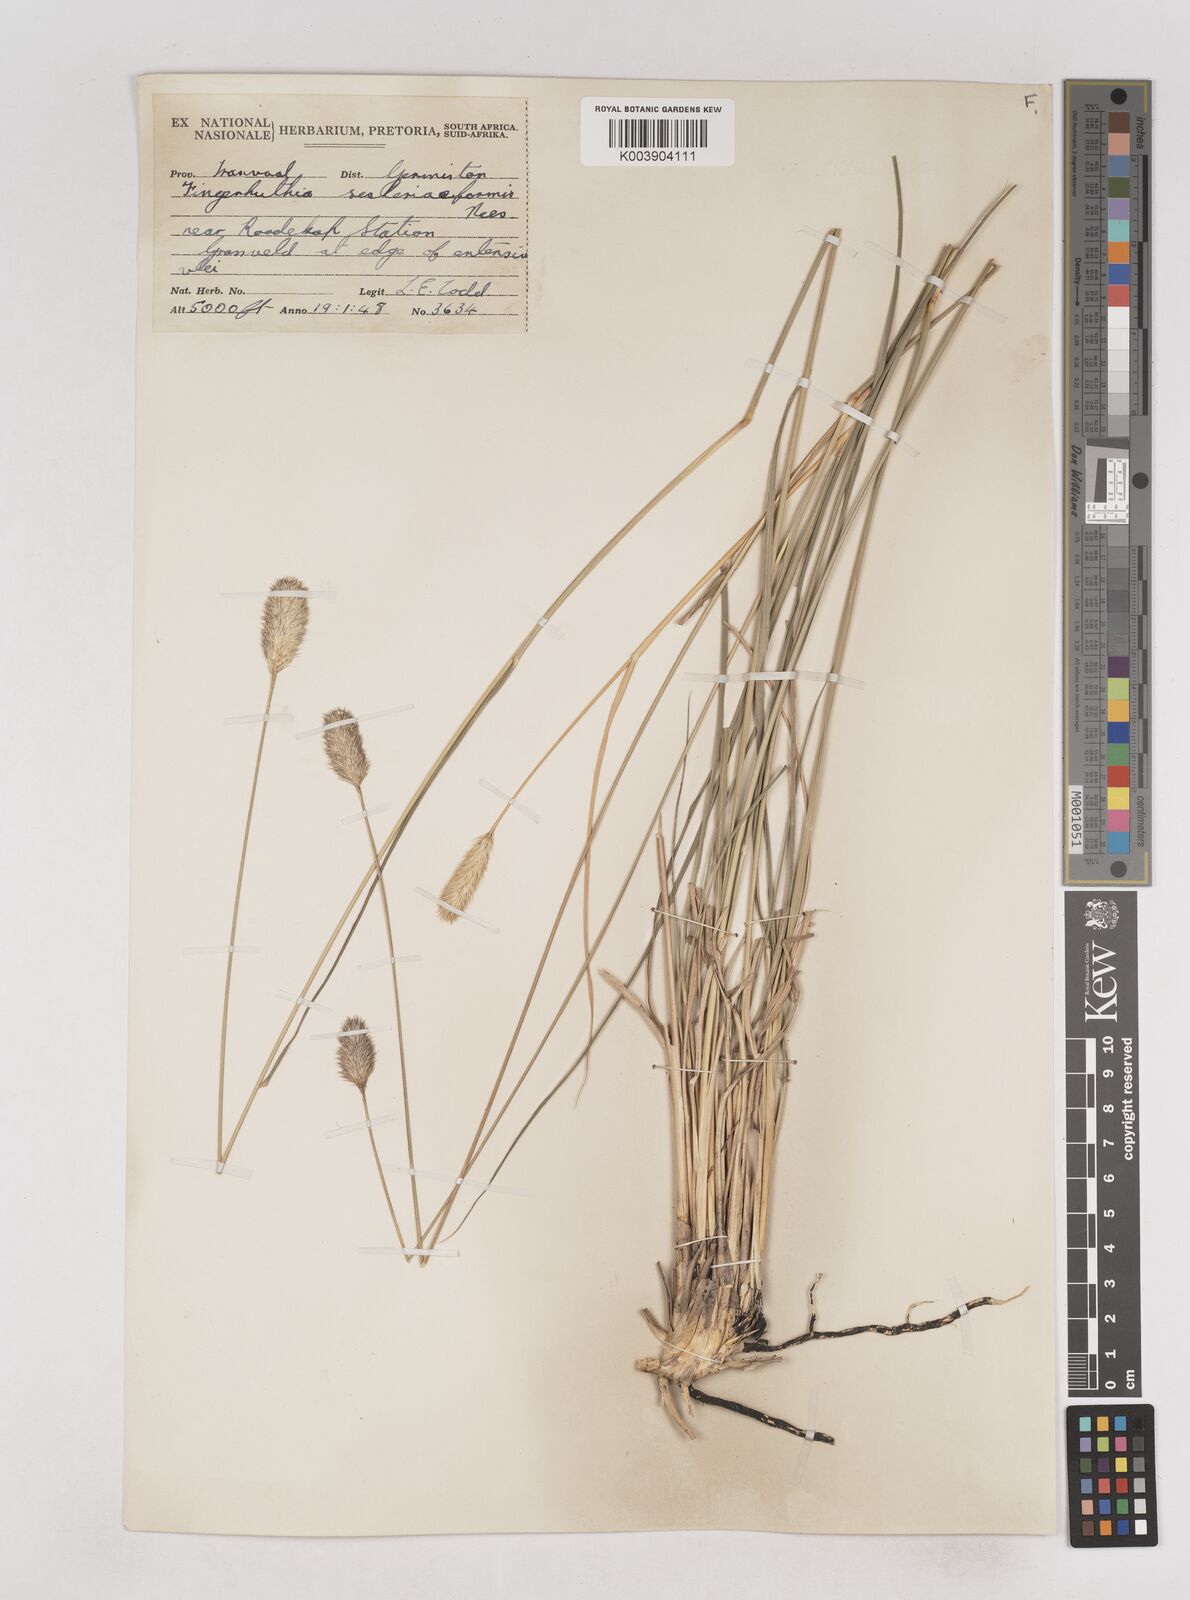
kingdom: Plantae
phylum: Tracheophyta
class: Liliopsida
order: Poales
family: Poaceae
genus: Fingerhuthia
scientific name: Fingerhuthia sesleriiformis
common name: Thimble grass
